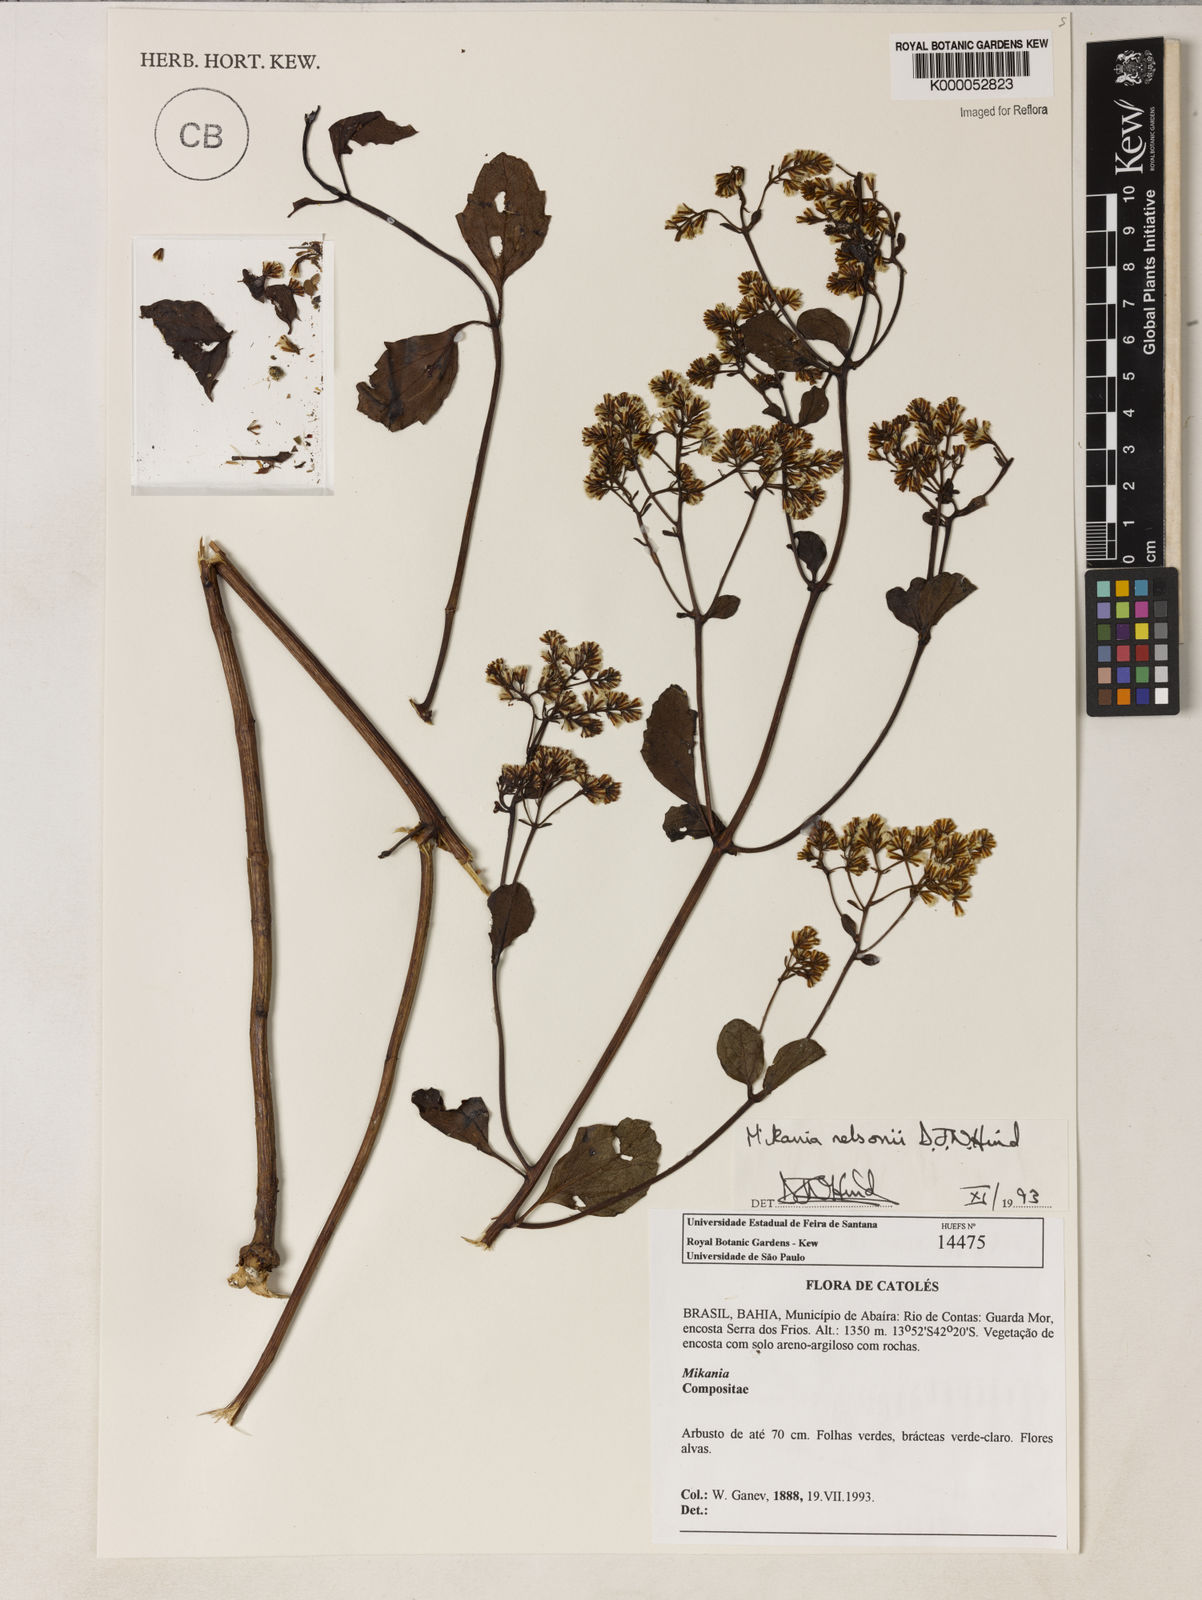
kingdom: Plantae
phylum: Tracheophyta
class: Magnoliopsida
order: Asterales
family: Asteraceae
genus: Mikania
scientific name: Mikania nelsonii
